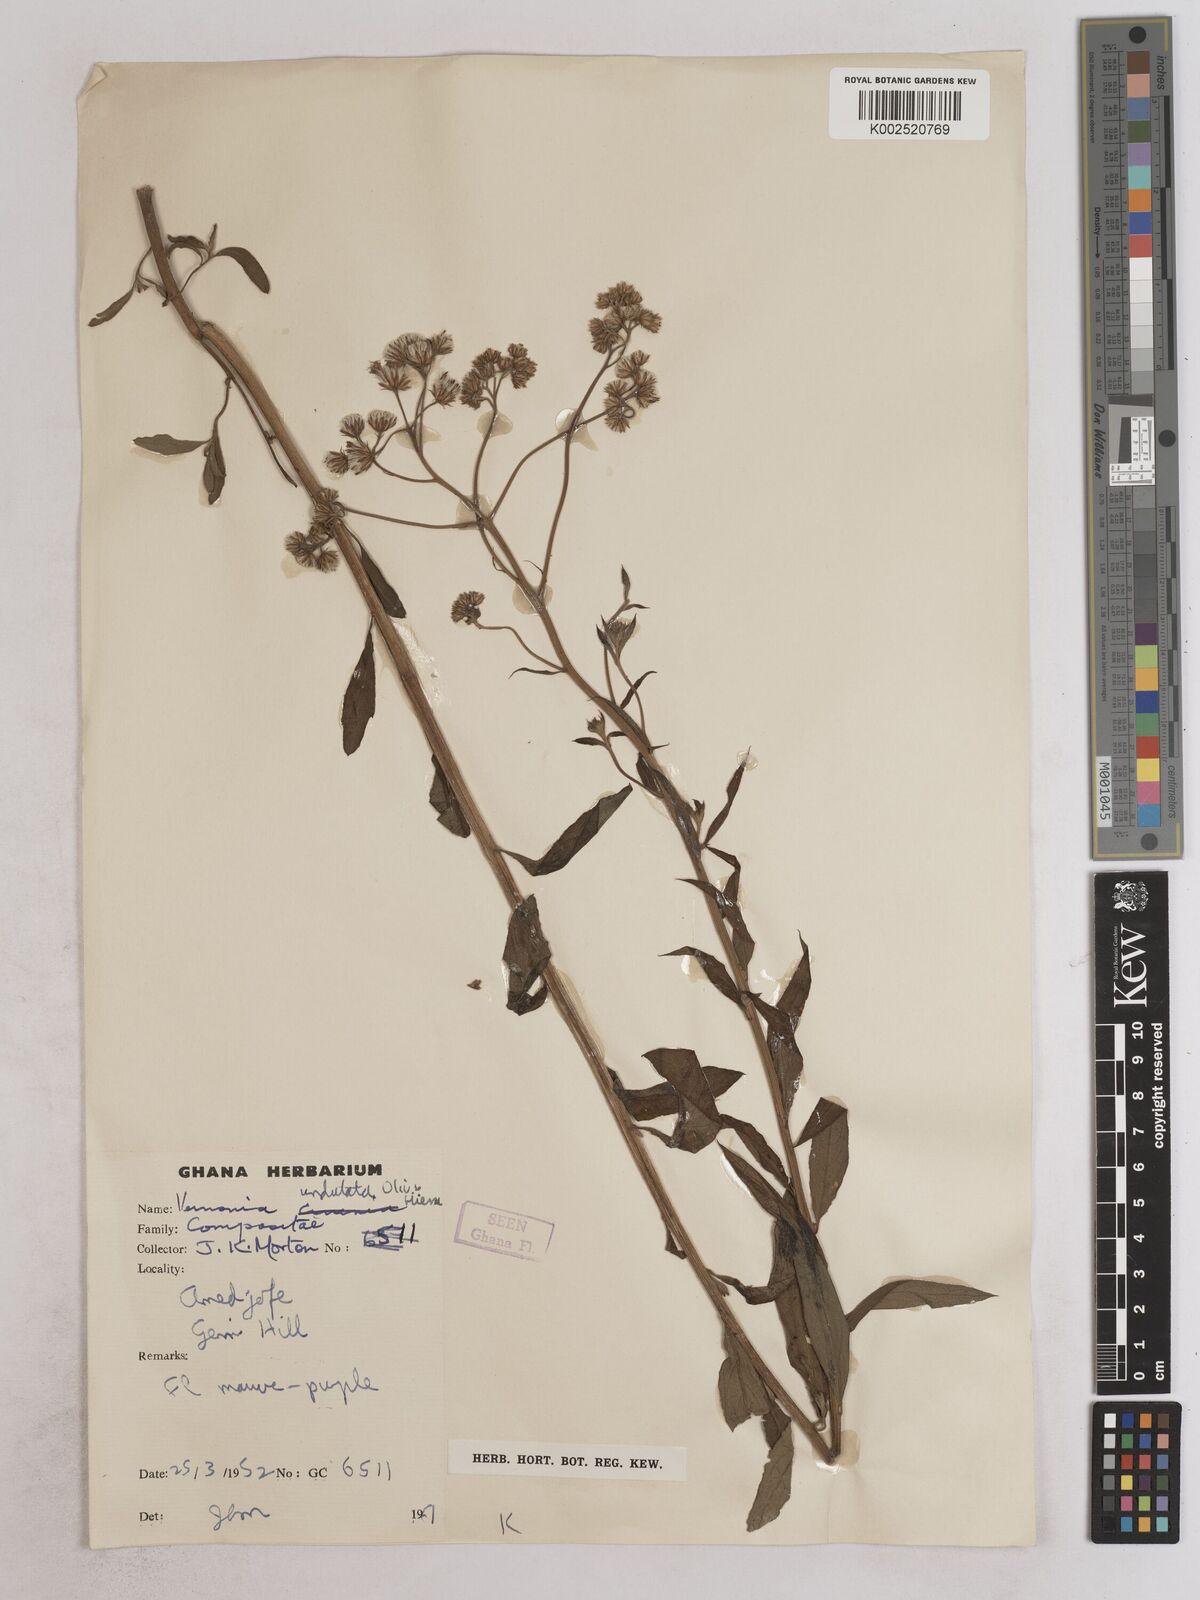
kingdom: Plantae
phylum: Tracheophyta
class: Magnoliopsida
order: Asterales
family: Asteraceae
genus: Vernonia
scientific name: Vernonia golungensis
